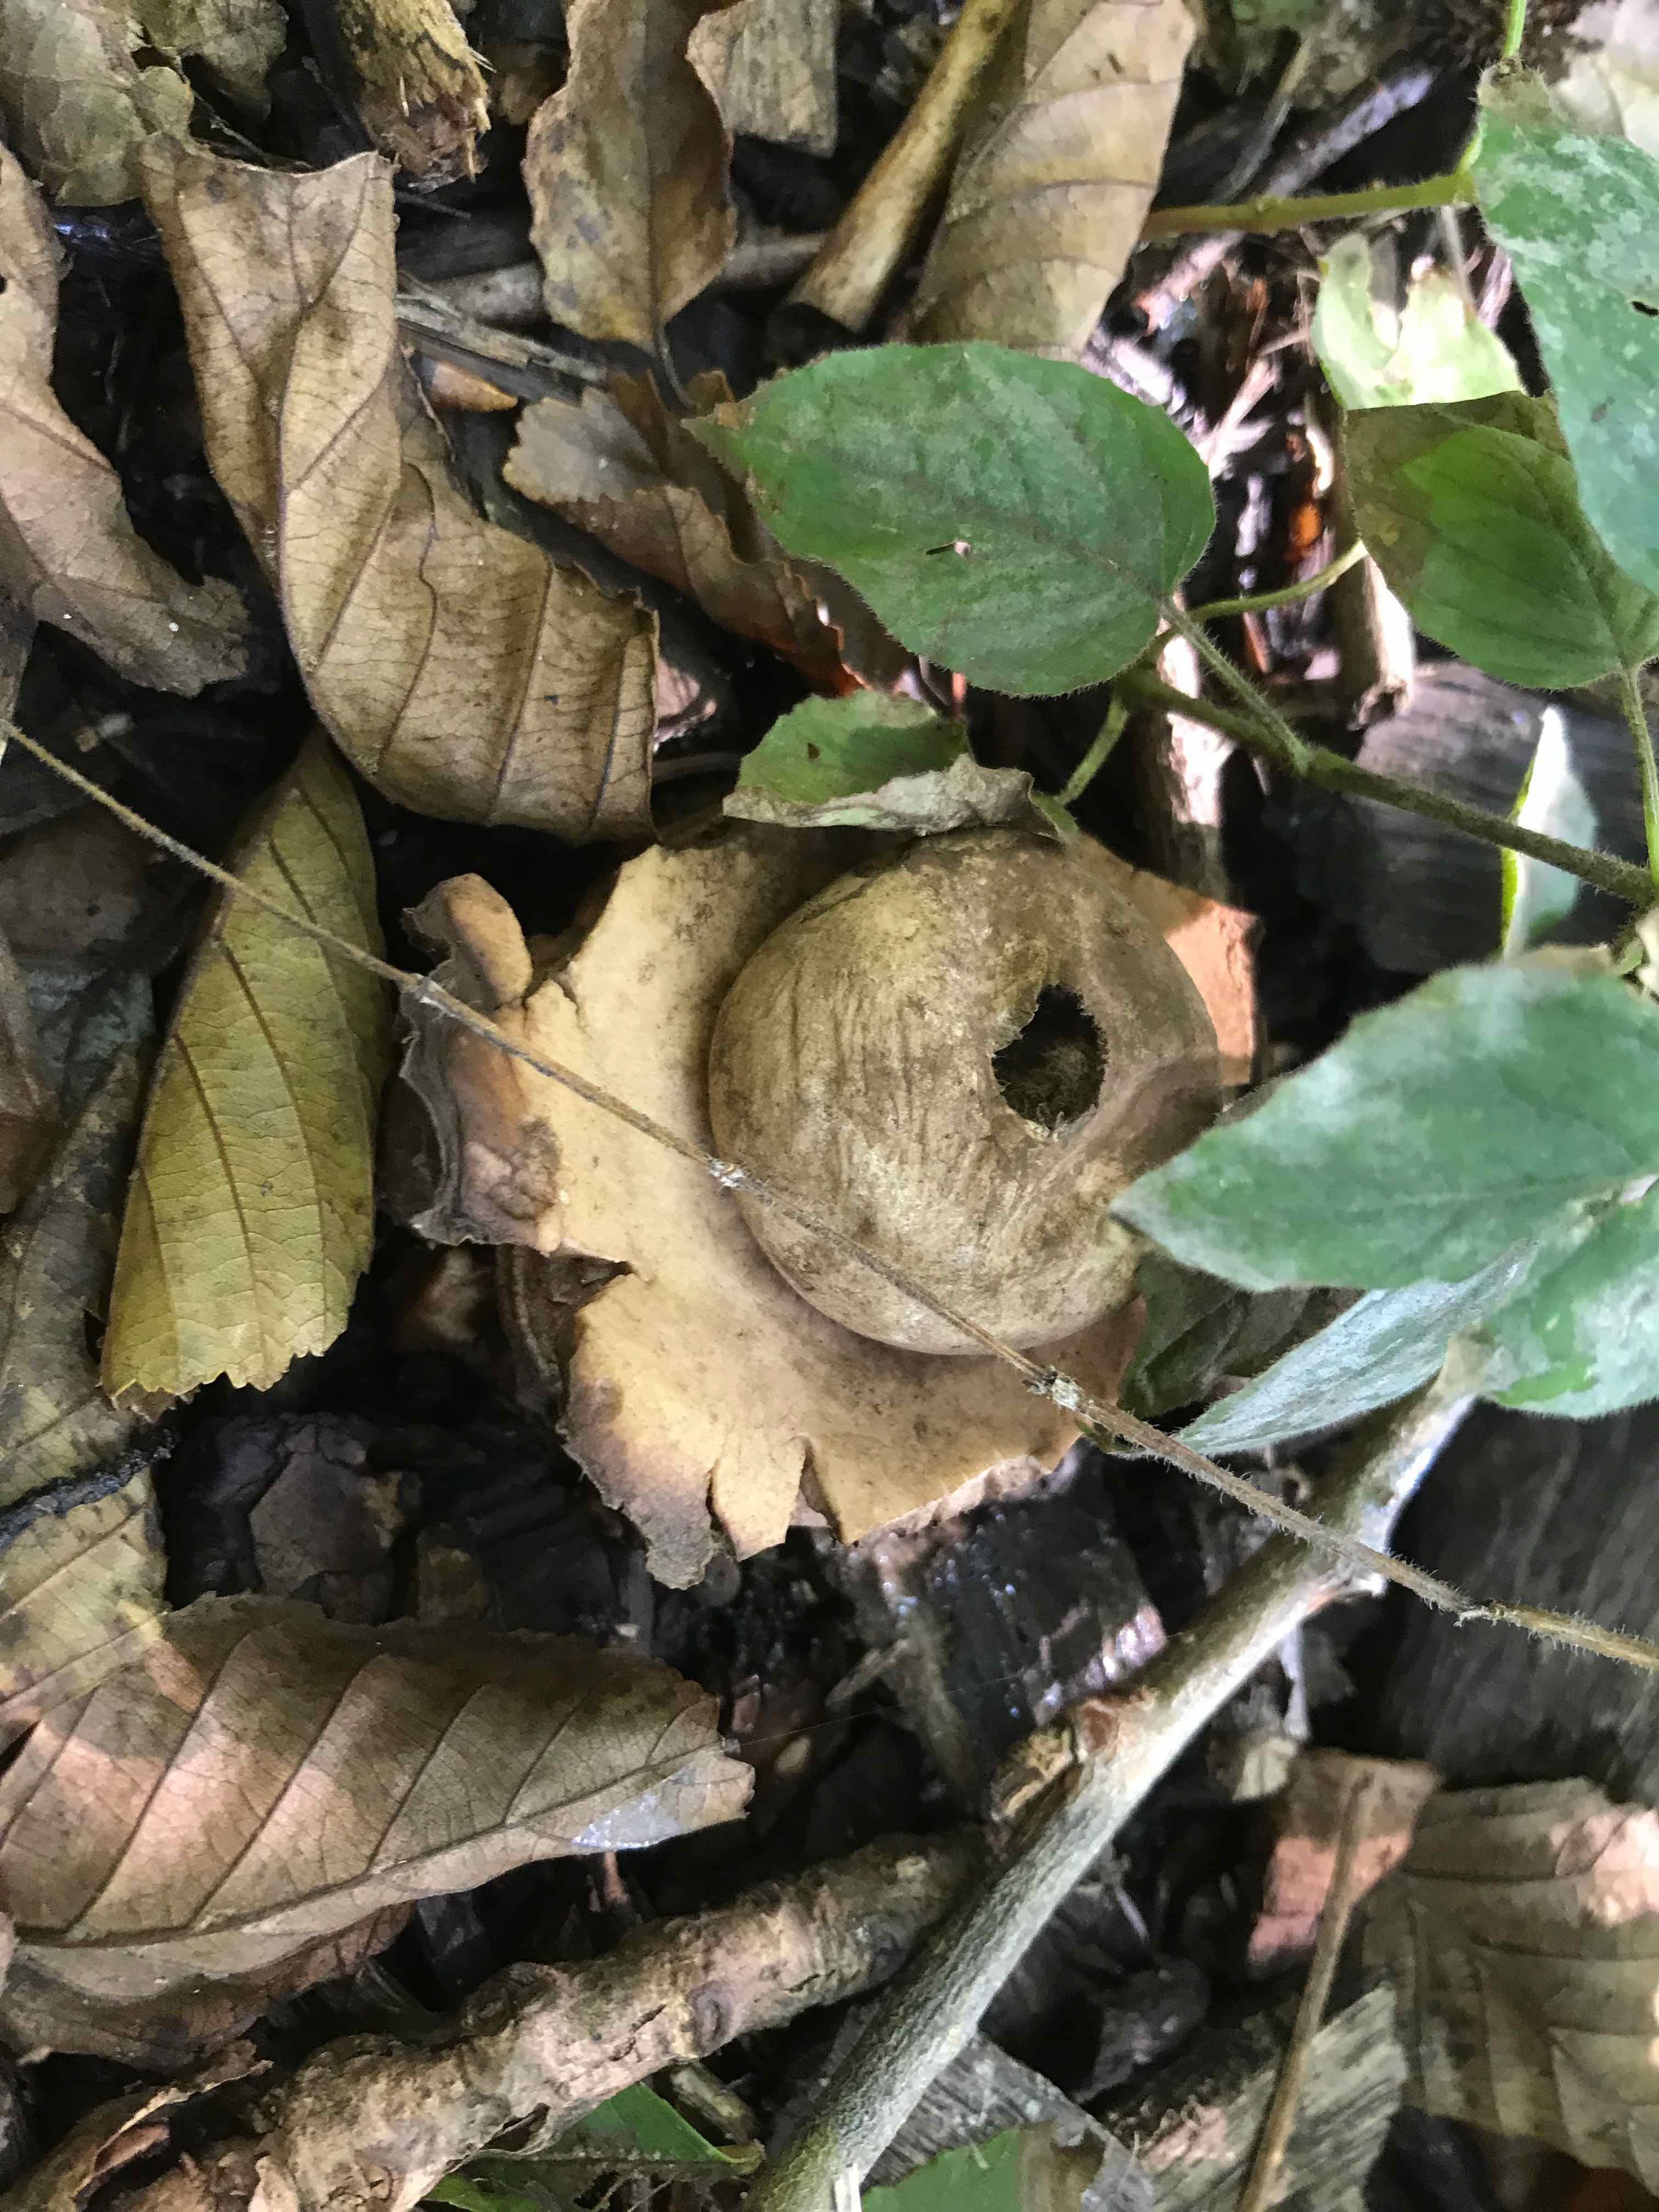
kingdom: Fungi
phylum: Basidiomycota
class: Agaricomycetes
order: Geastrales
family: Geastraceae
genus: Geastrum
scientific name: Geastrum michelianum
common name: kødet stjernebold
